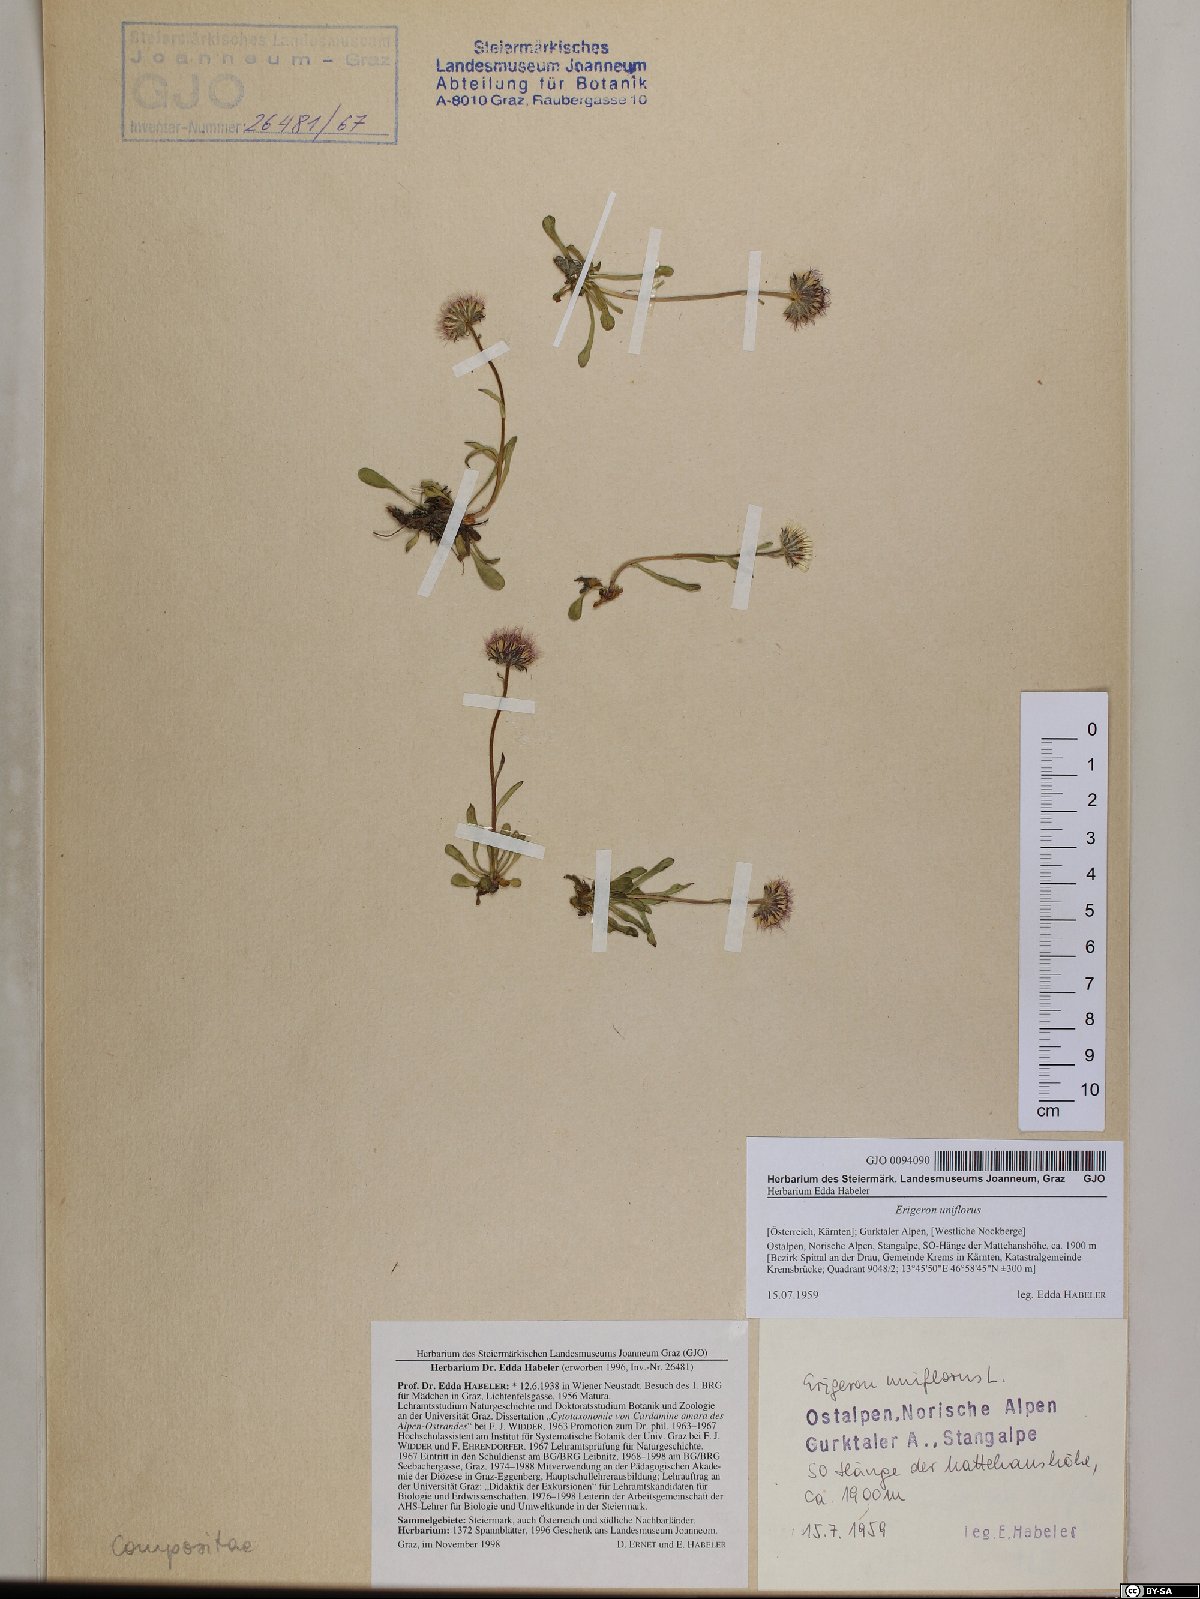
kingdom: Plantae
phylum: Tracheophyta
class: Magnoliopsida
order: Asterales
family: Asteraceae
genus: Erigeron
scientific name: Erigeron uniflorus
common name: Northern daisy
